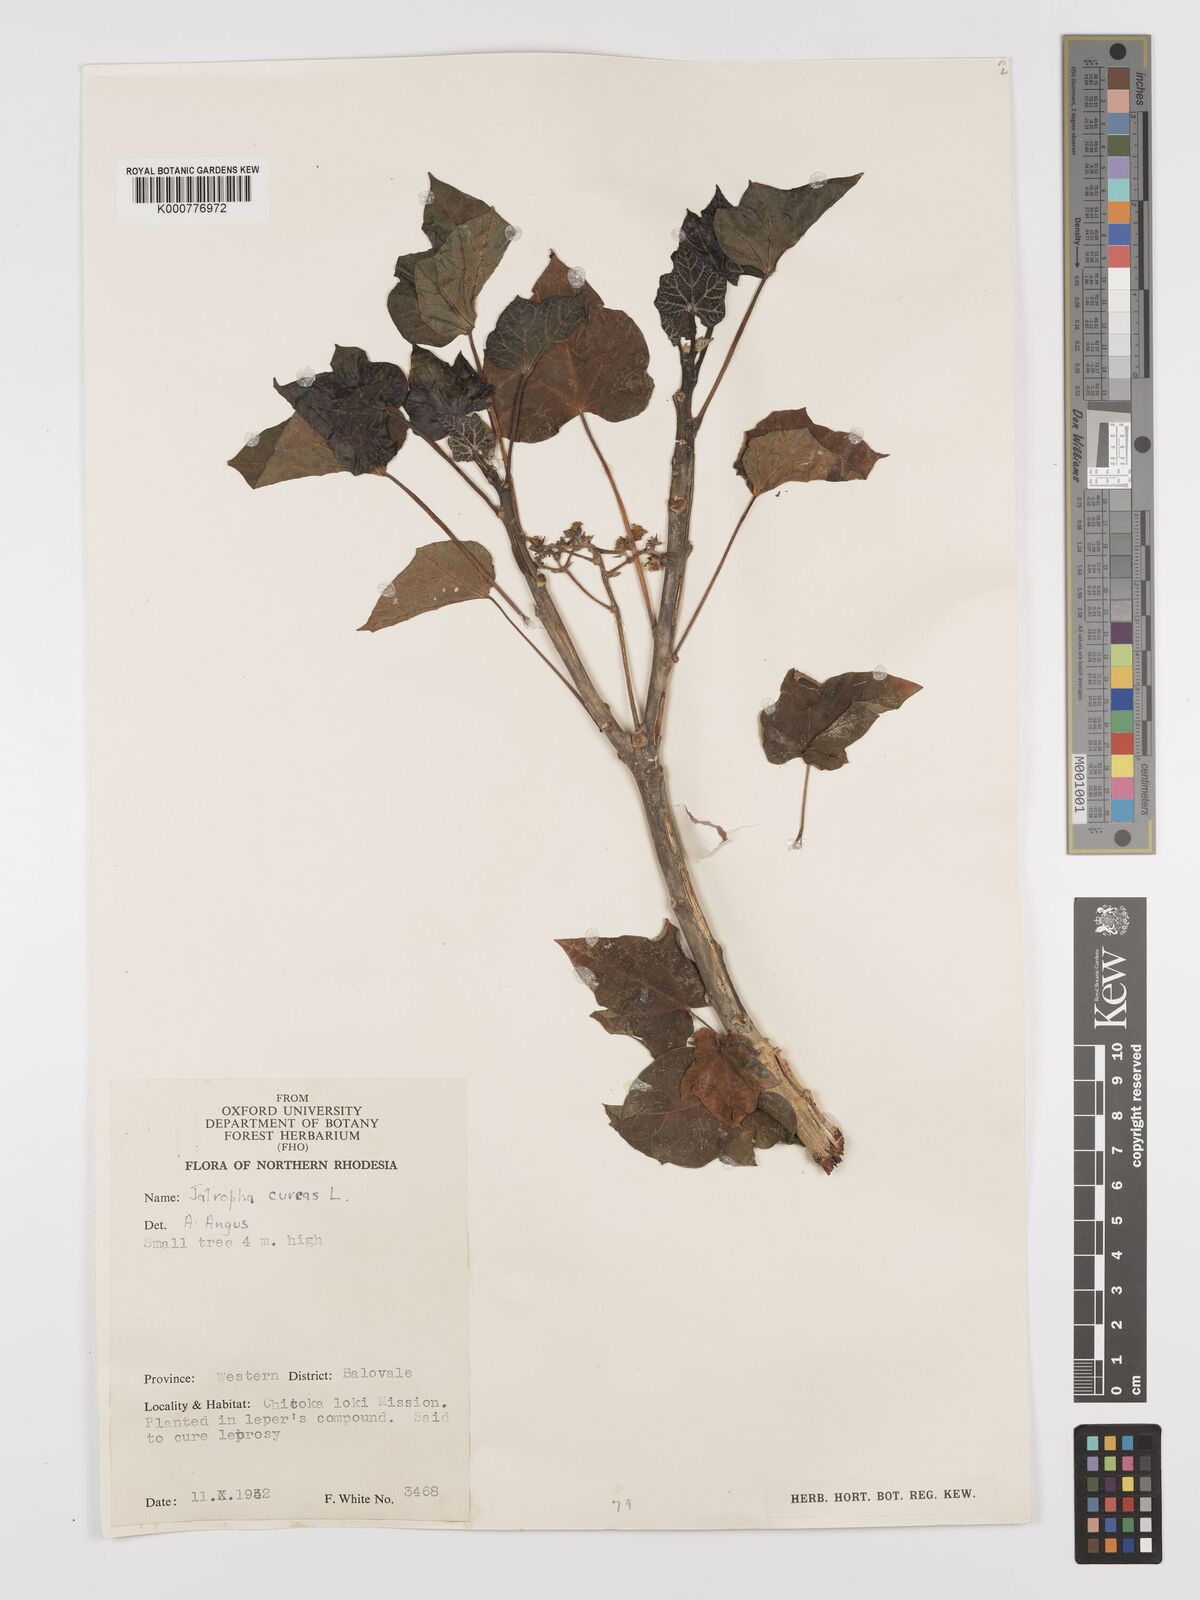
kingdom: Plantae
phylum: Tracheophyta
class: Magnoliopsida
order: Malpighiales
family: Euphorbiaceae
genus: Jatropha
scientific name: Jatropha curcas
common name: Barbados nut
